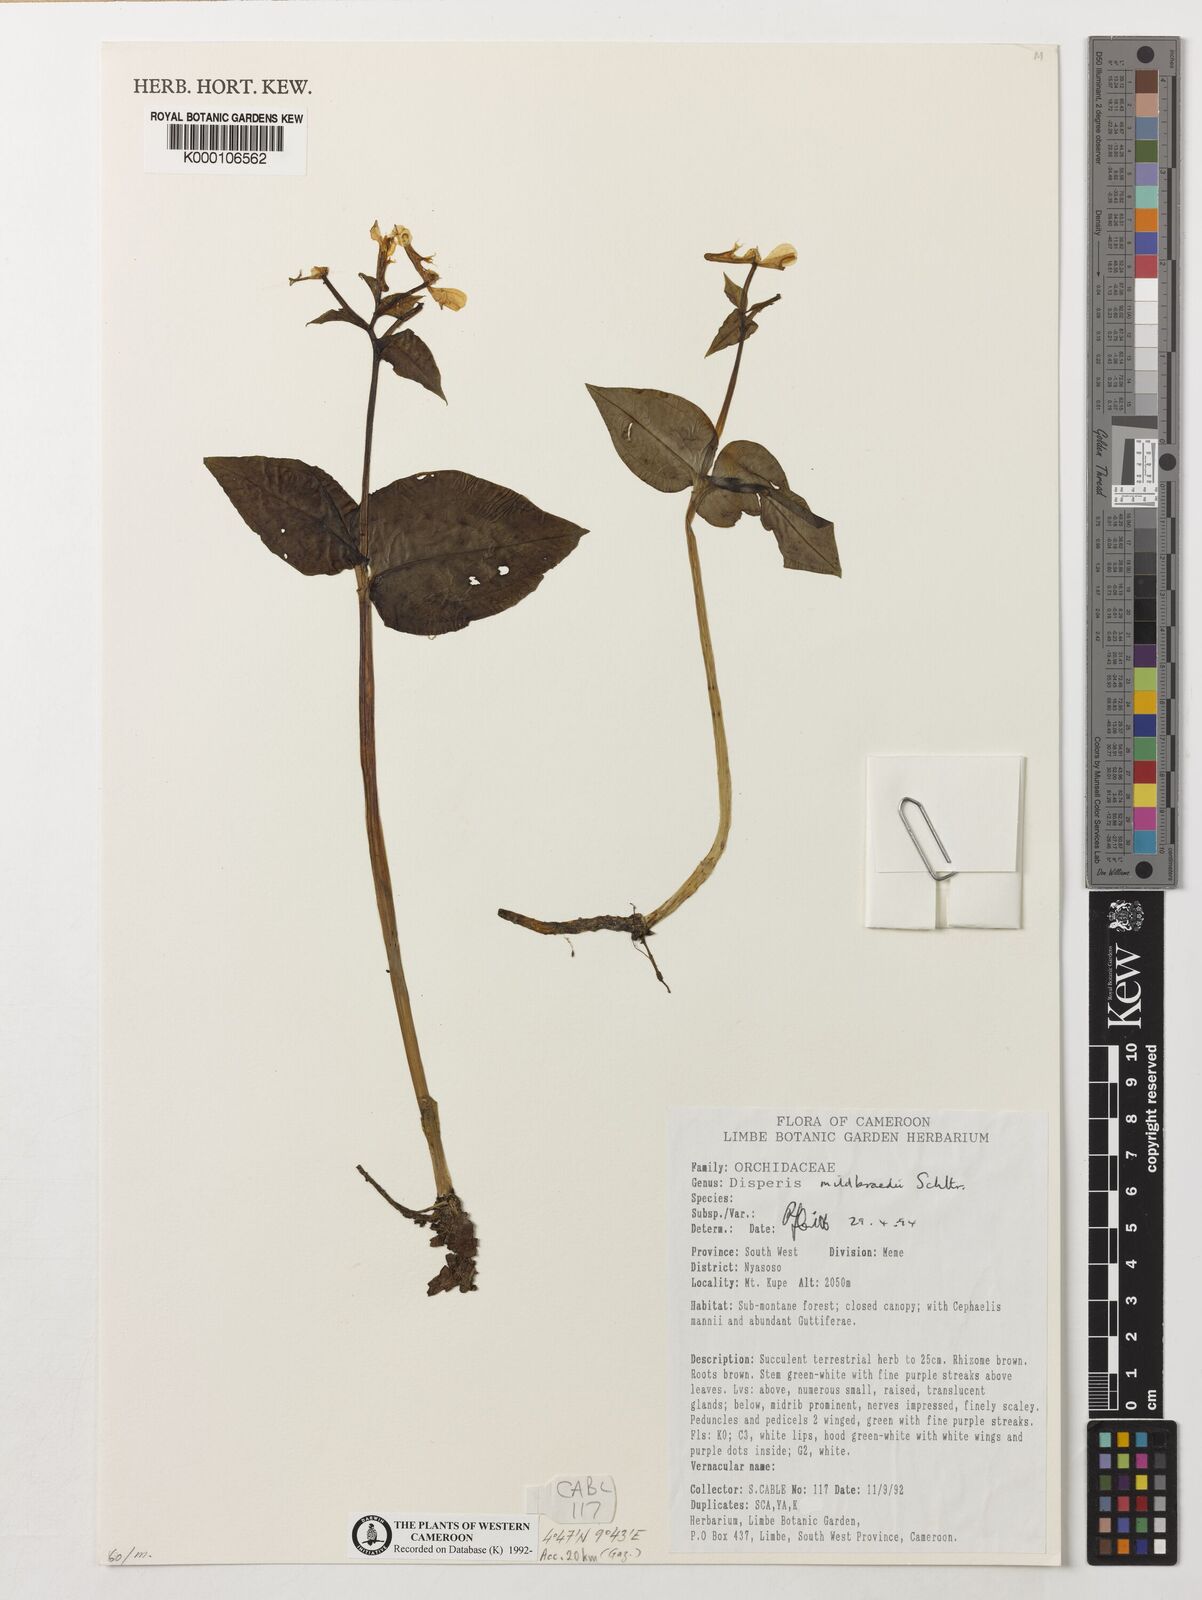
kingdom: Plantae
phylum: Tracheophyta
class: Liliopsida
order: Asparagales
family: Orchidaceae
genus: Disperis
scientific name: Disperis mildbraedii
